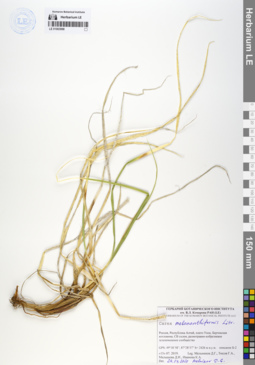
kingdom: Plantae
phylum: Tracheophyta
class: Liliopsida
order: Poales
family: Cyperaceae
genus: Carex
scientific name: Carex melananthiformis
